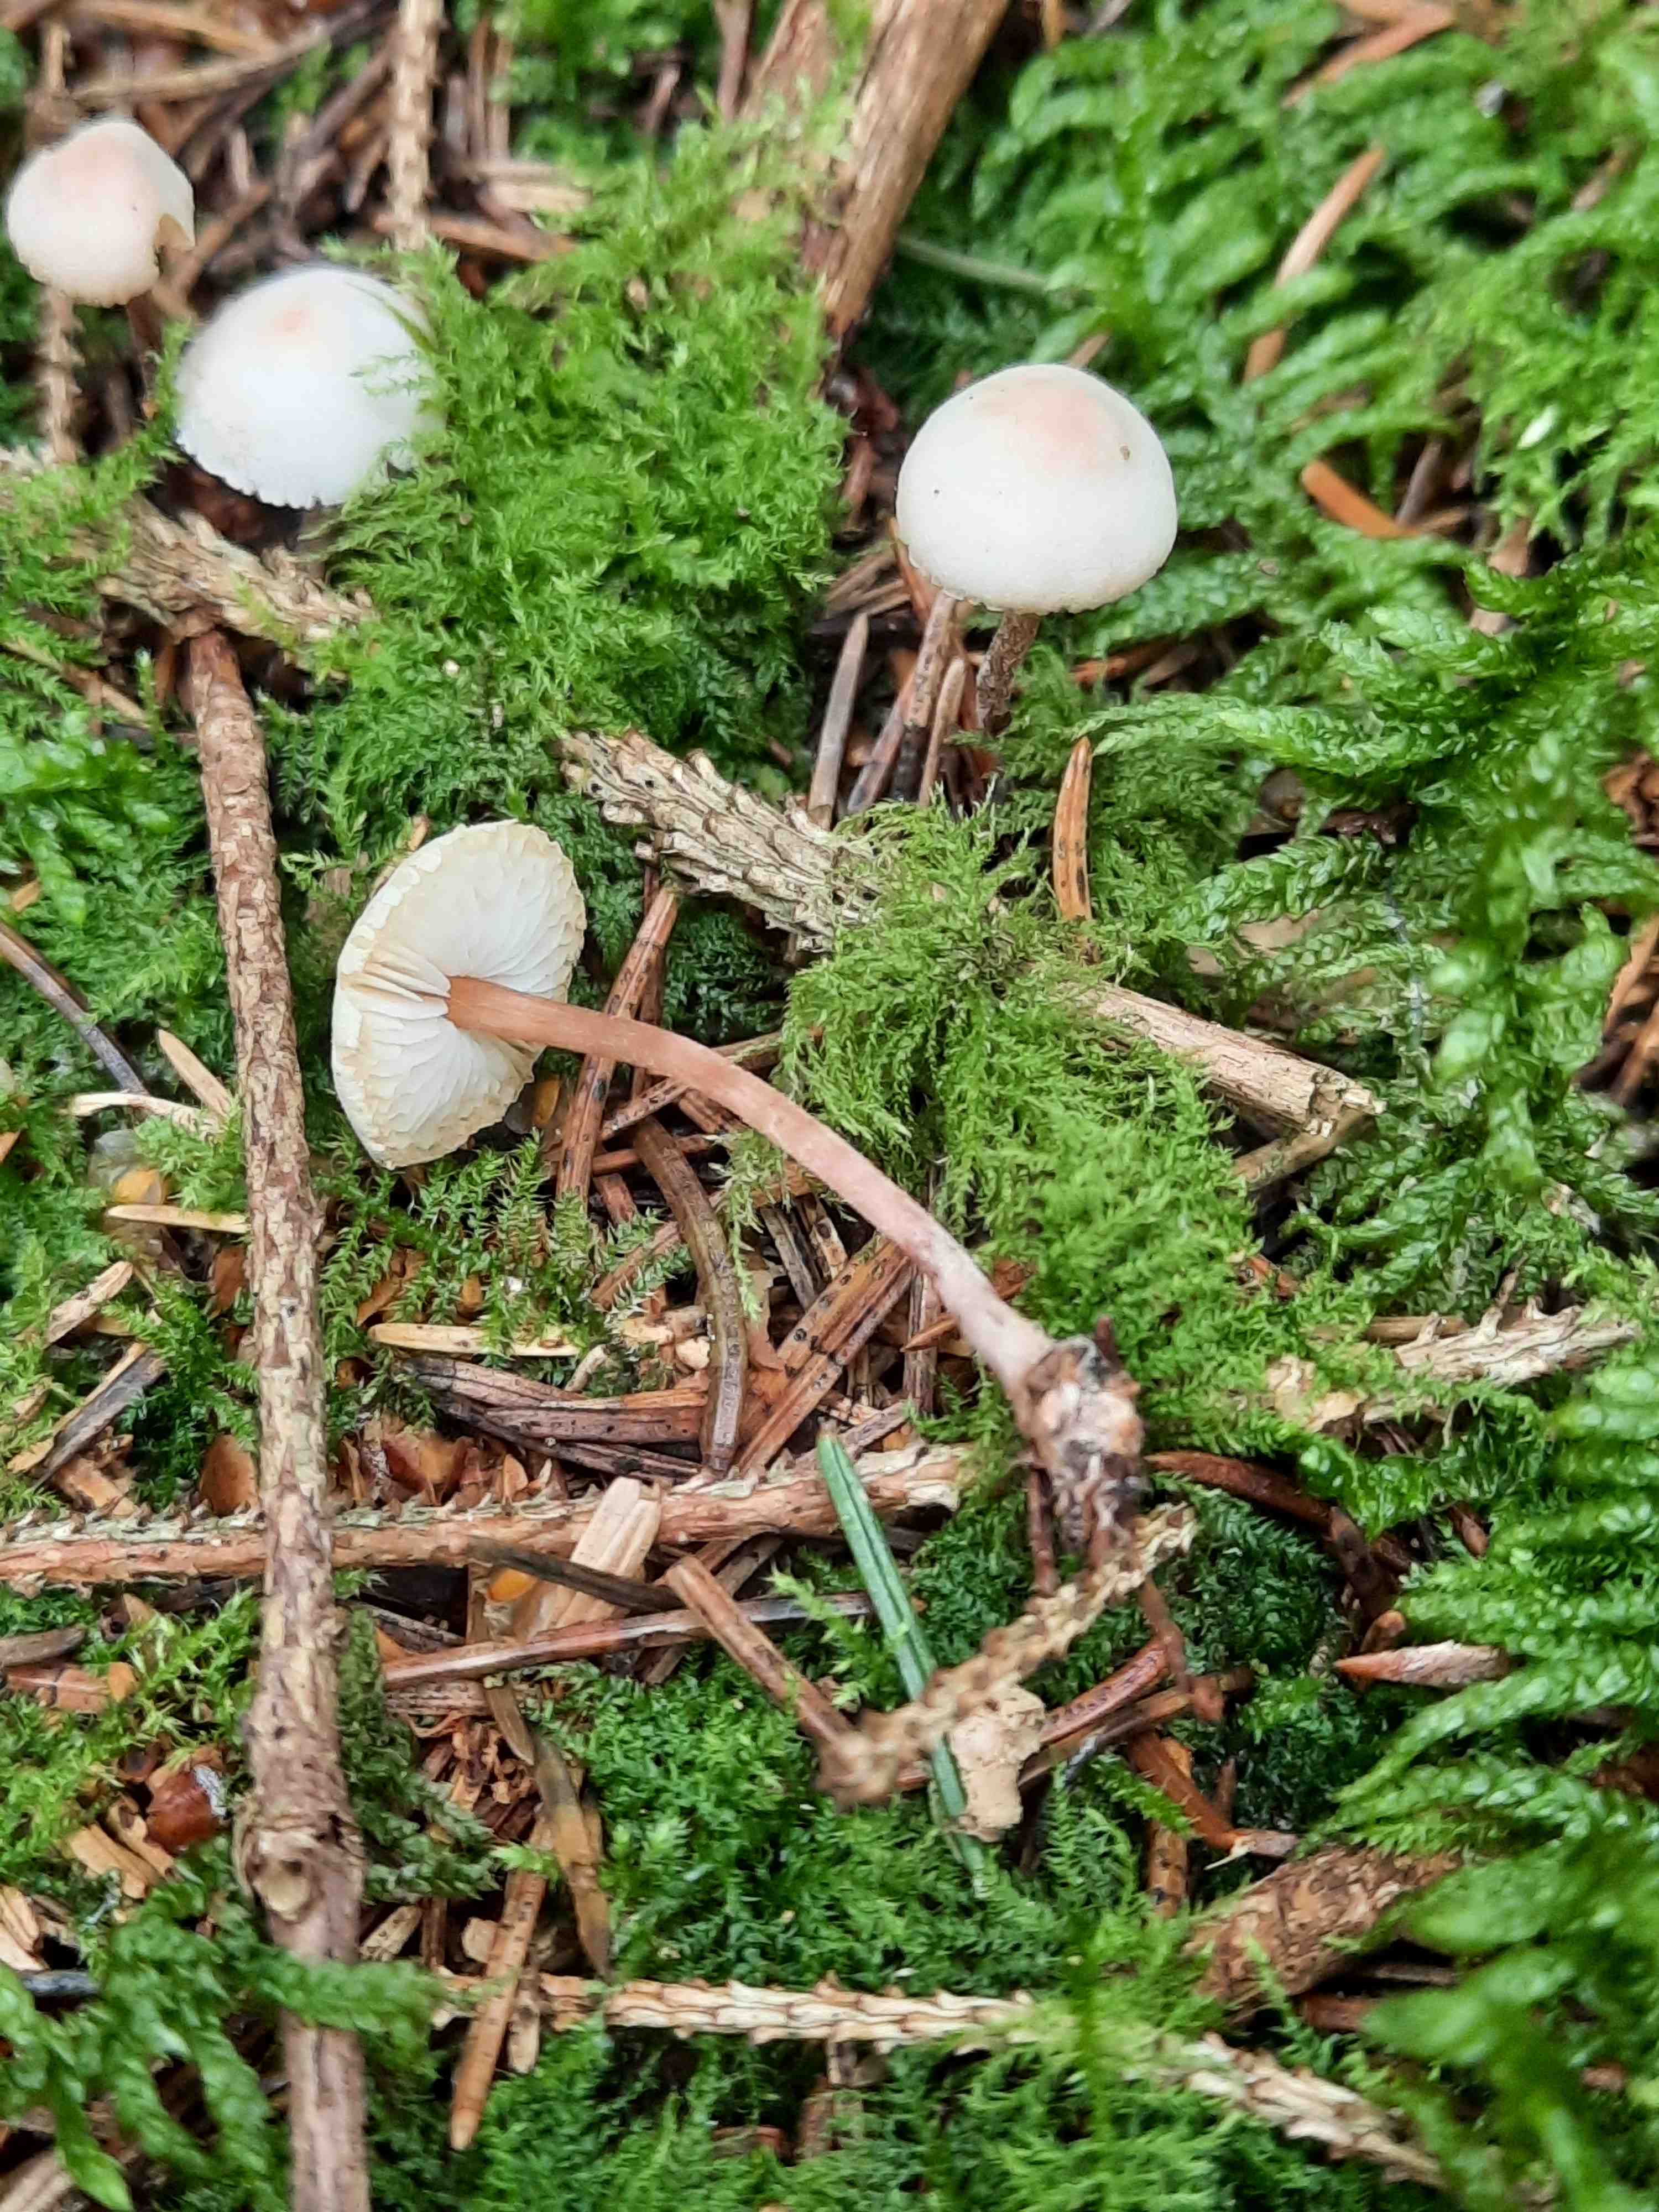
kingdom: Fungi
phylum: Basidiomycota
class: Agaricomycetes
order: Agaricales
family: Agaricaceae
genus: Cystolepiota
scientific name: Cystolepiota seminuda
